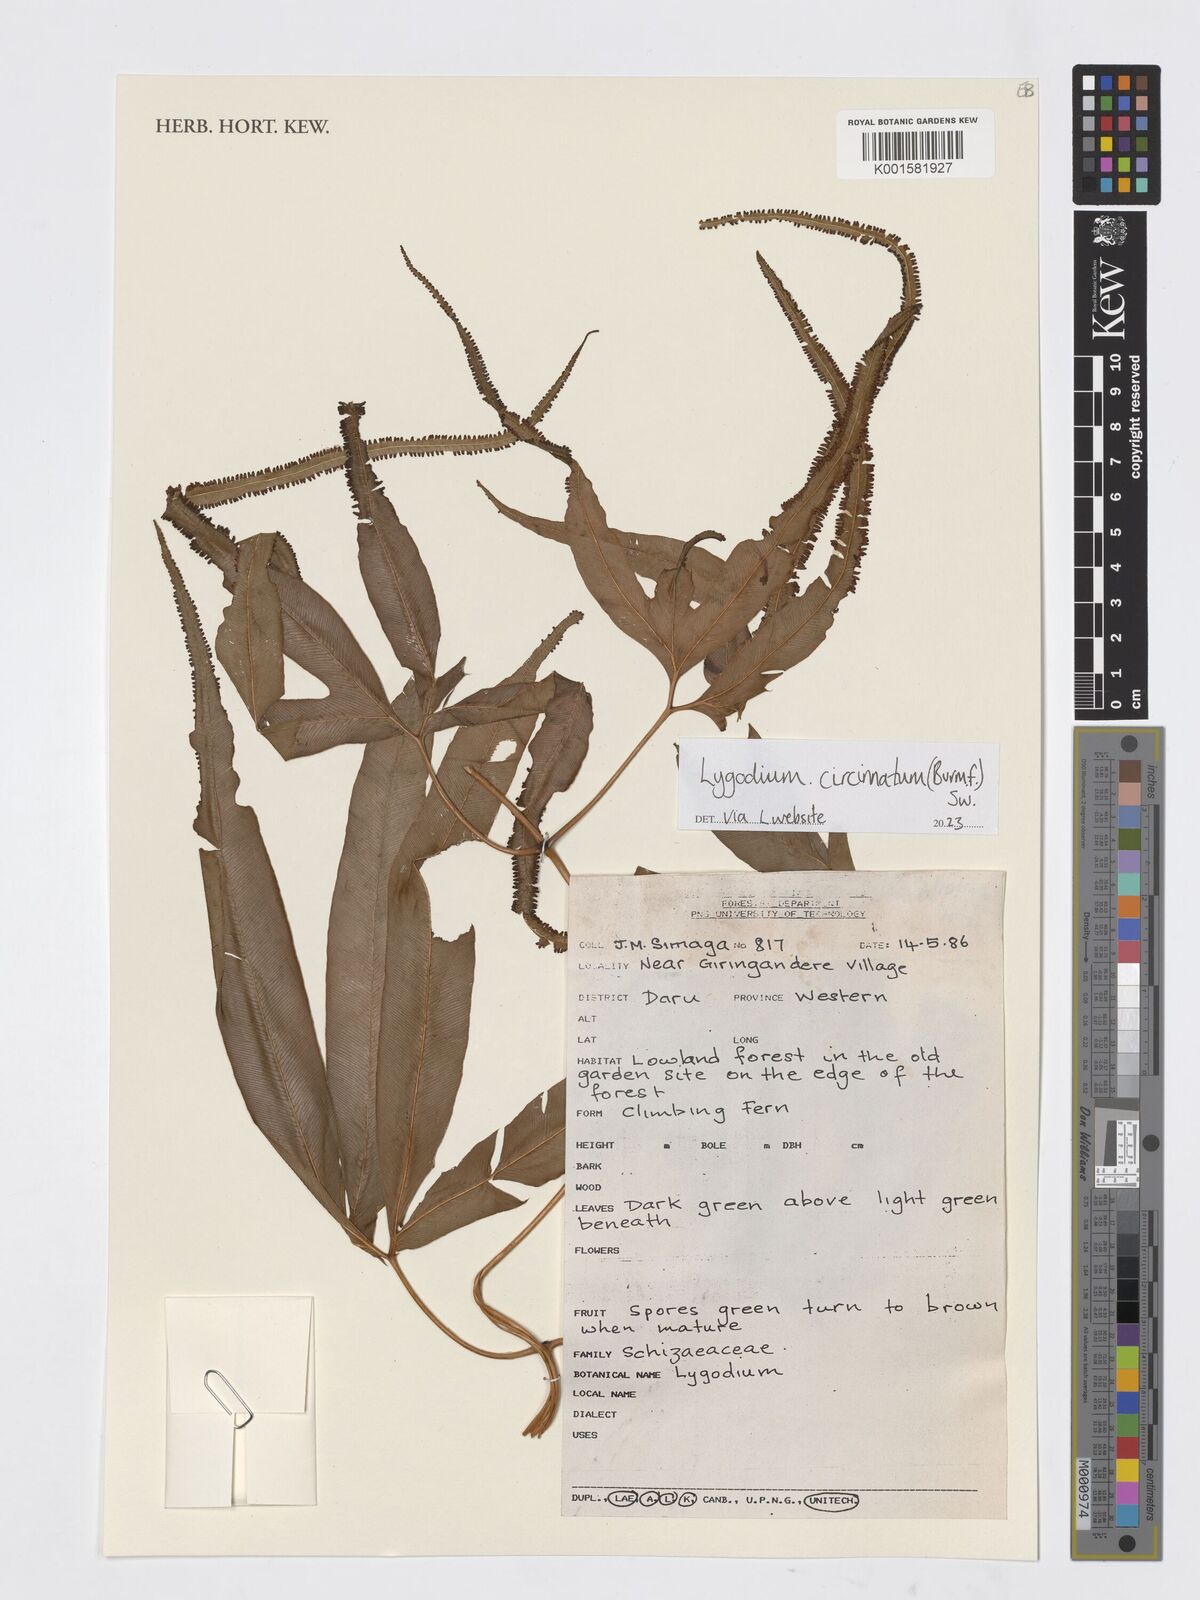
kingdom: Plantae
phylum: Tracheophyta
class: Polypodiopsida
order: Schizaeales
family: Lygodiaceae
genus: Lygodium
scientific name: Lygodium circinnatum
